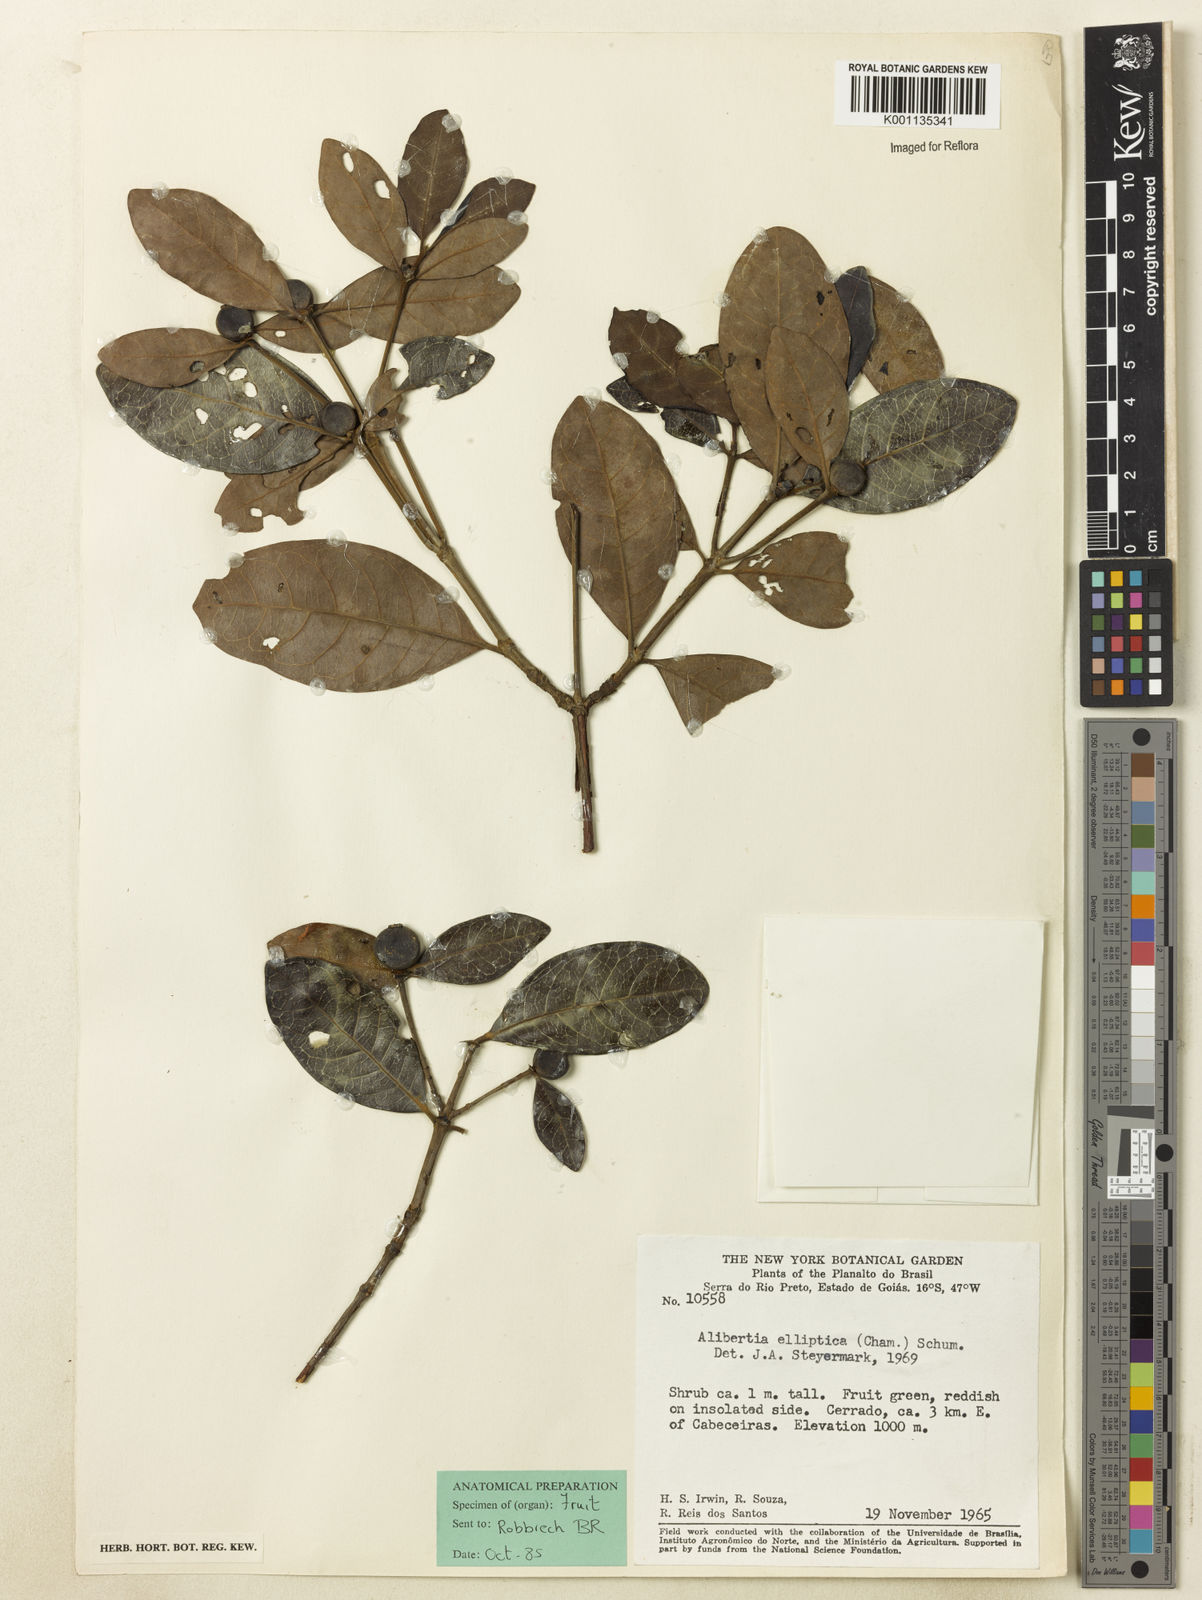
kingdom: Plantae
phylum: Tracheophyta
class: Magnoliopsida
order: Gentianales
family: Rubiaceae
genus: Cordiera
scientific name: Cordiera elliptica
